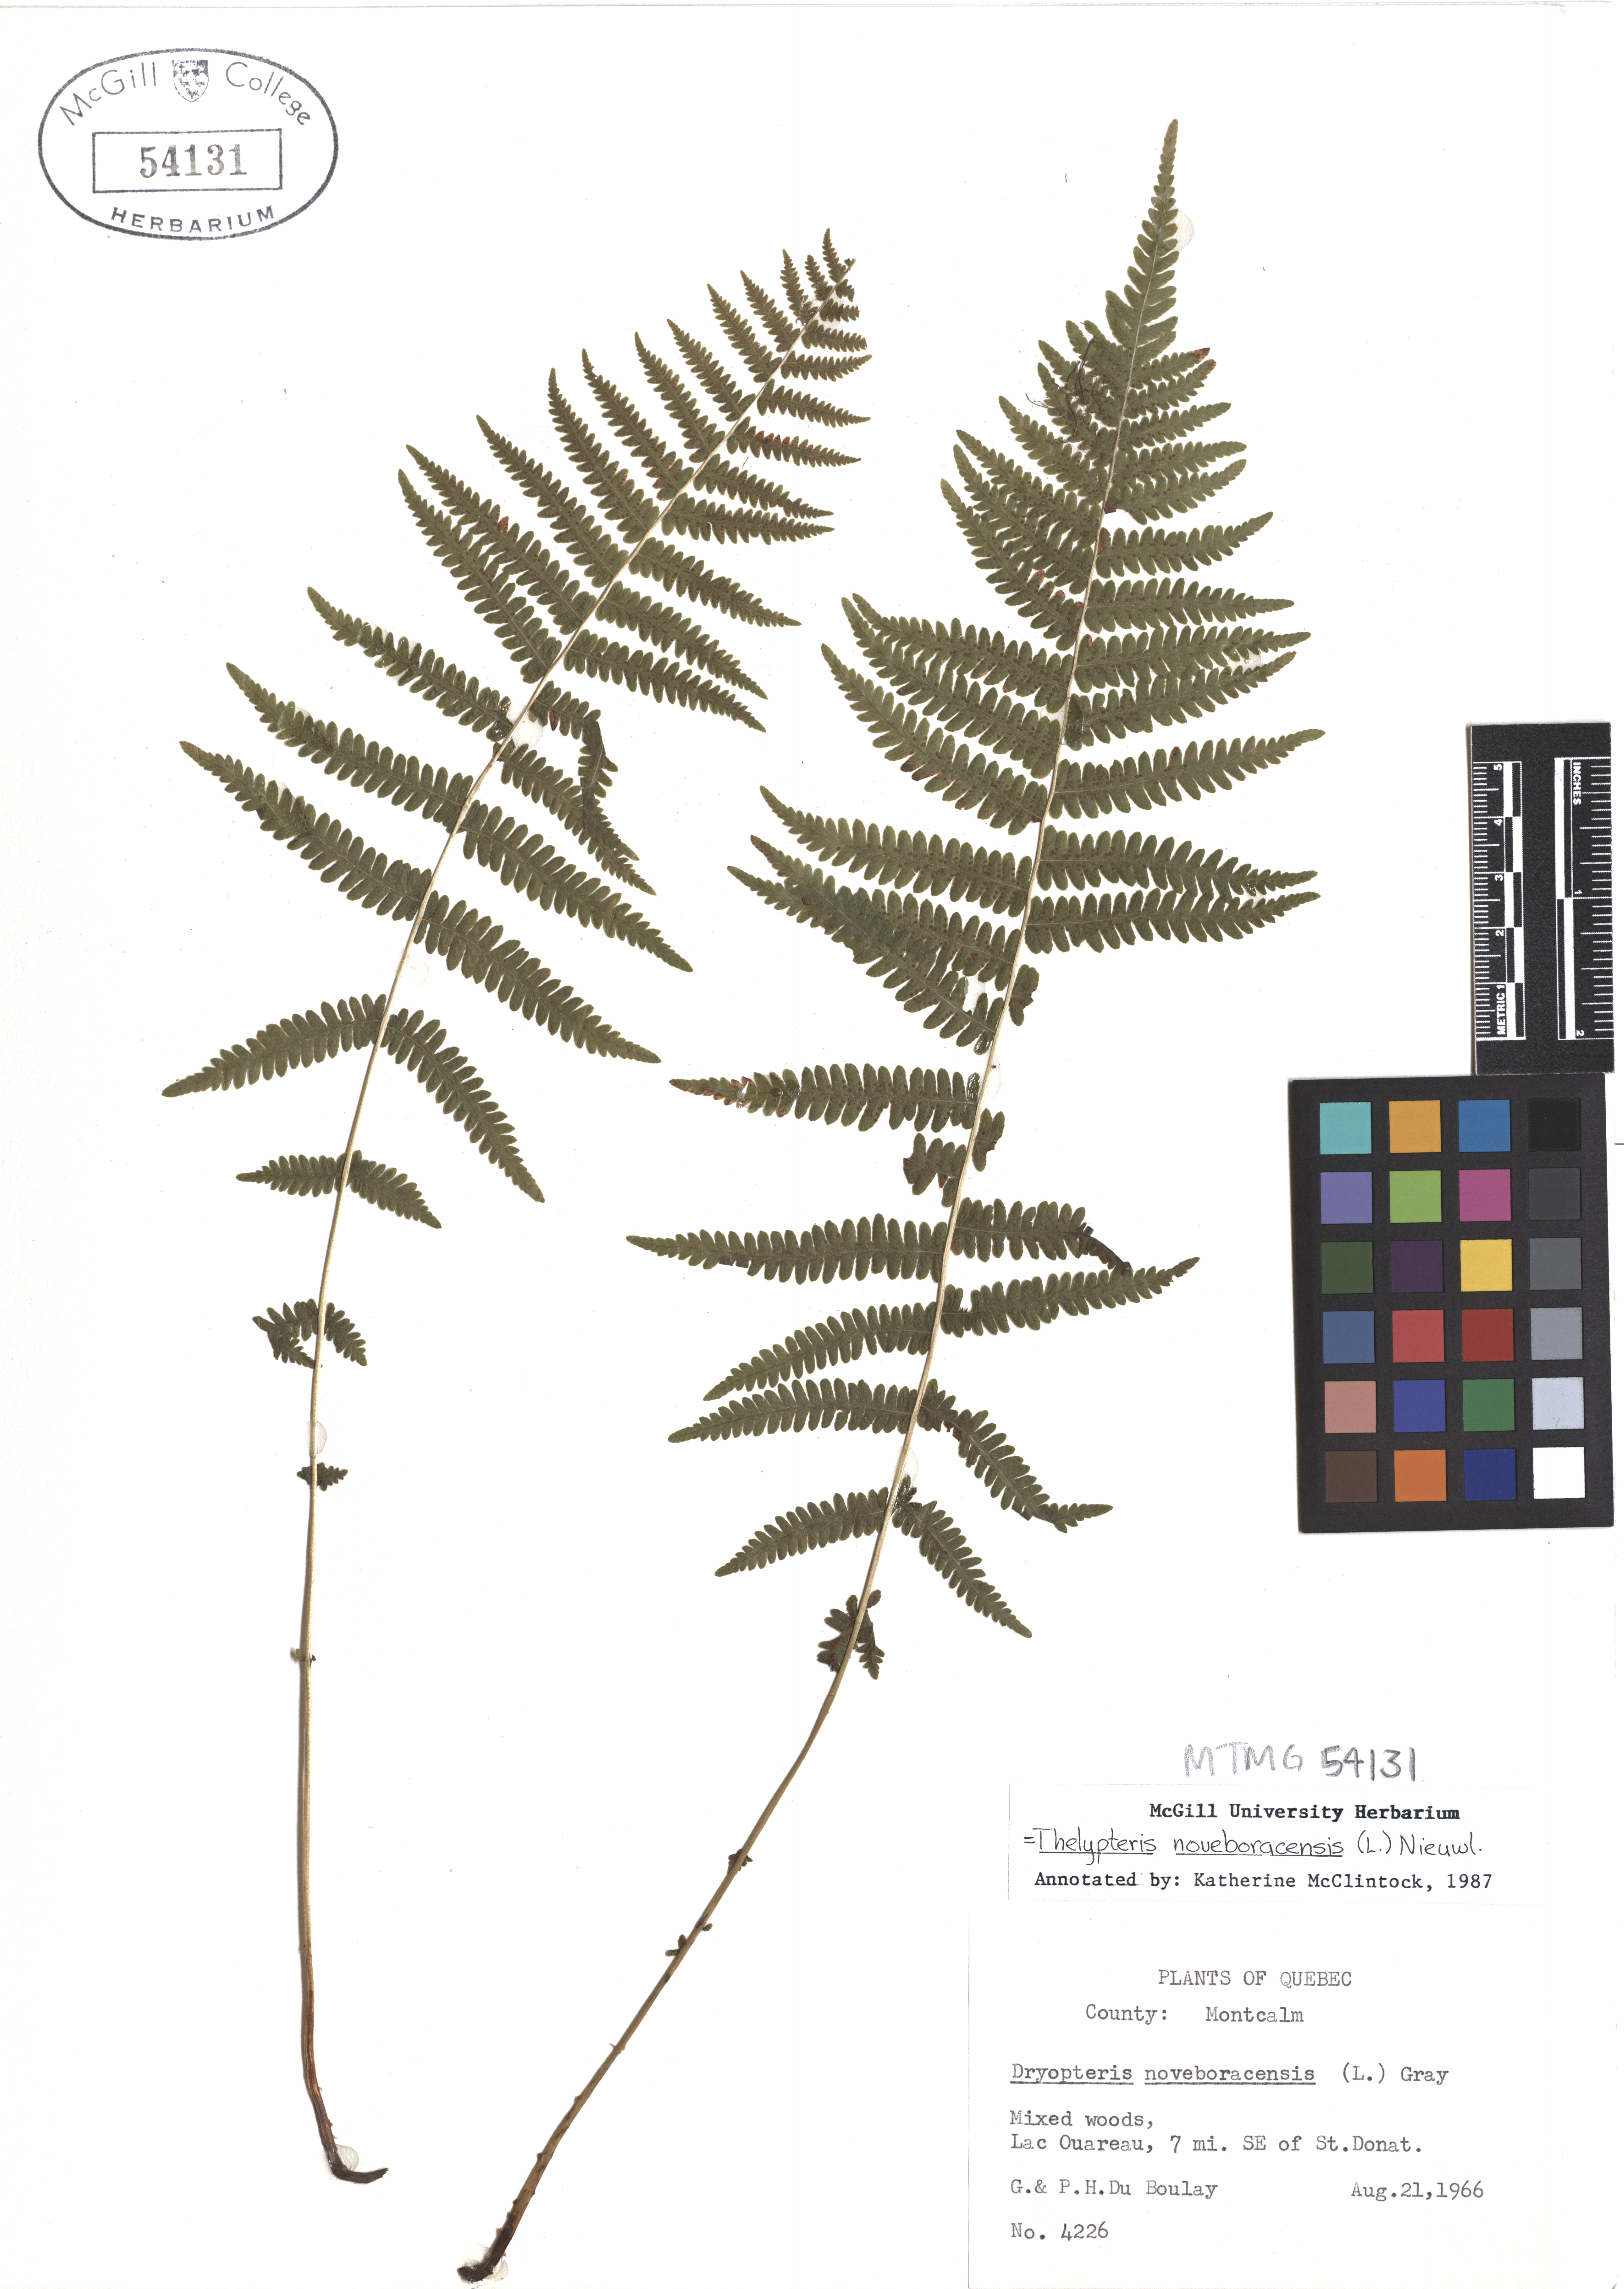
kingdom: Plantae
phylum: Tracheophyta
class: Polypodiopsida
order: Polypodiales
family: Thelypteridaceae
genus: Amauropelta
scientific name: Amauropelta noveboracensis
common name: New york fern
